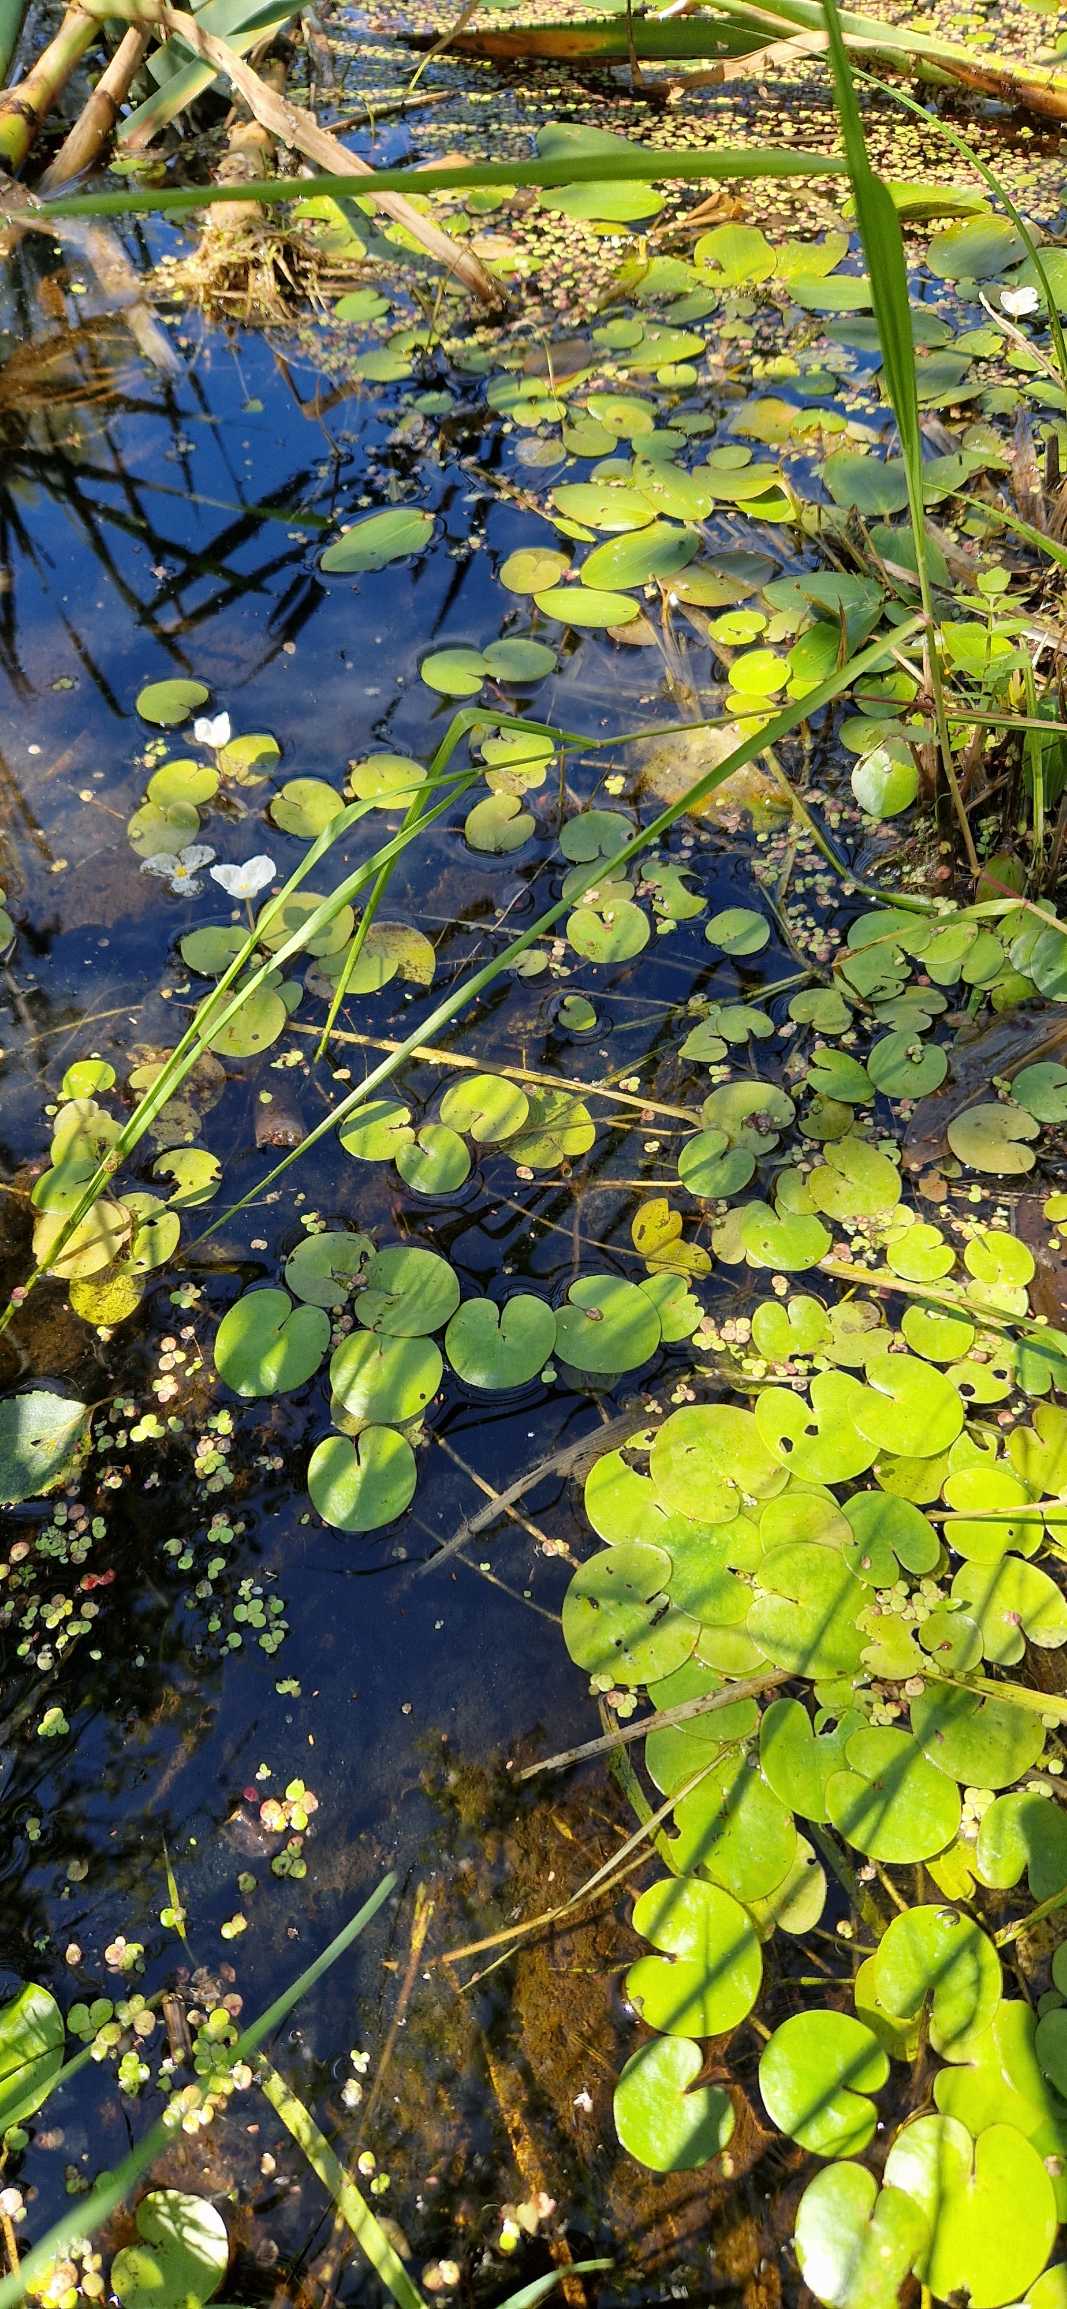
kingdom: Plantae
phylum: Tracheophyta
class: Liliopsida
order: Alismatales
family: Hydrocharitaceae
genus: Hydrocharis
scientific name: Hydrocharis morsus-ranae
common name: Frøbid
